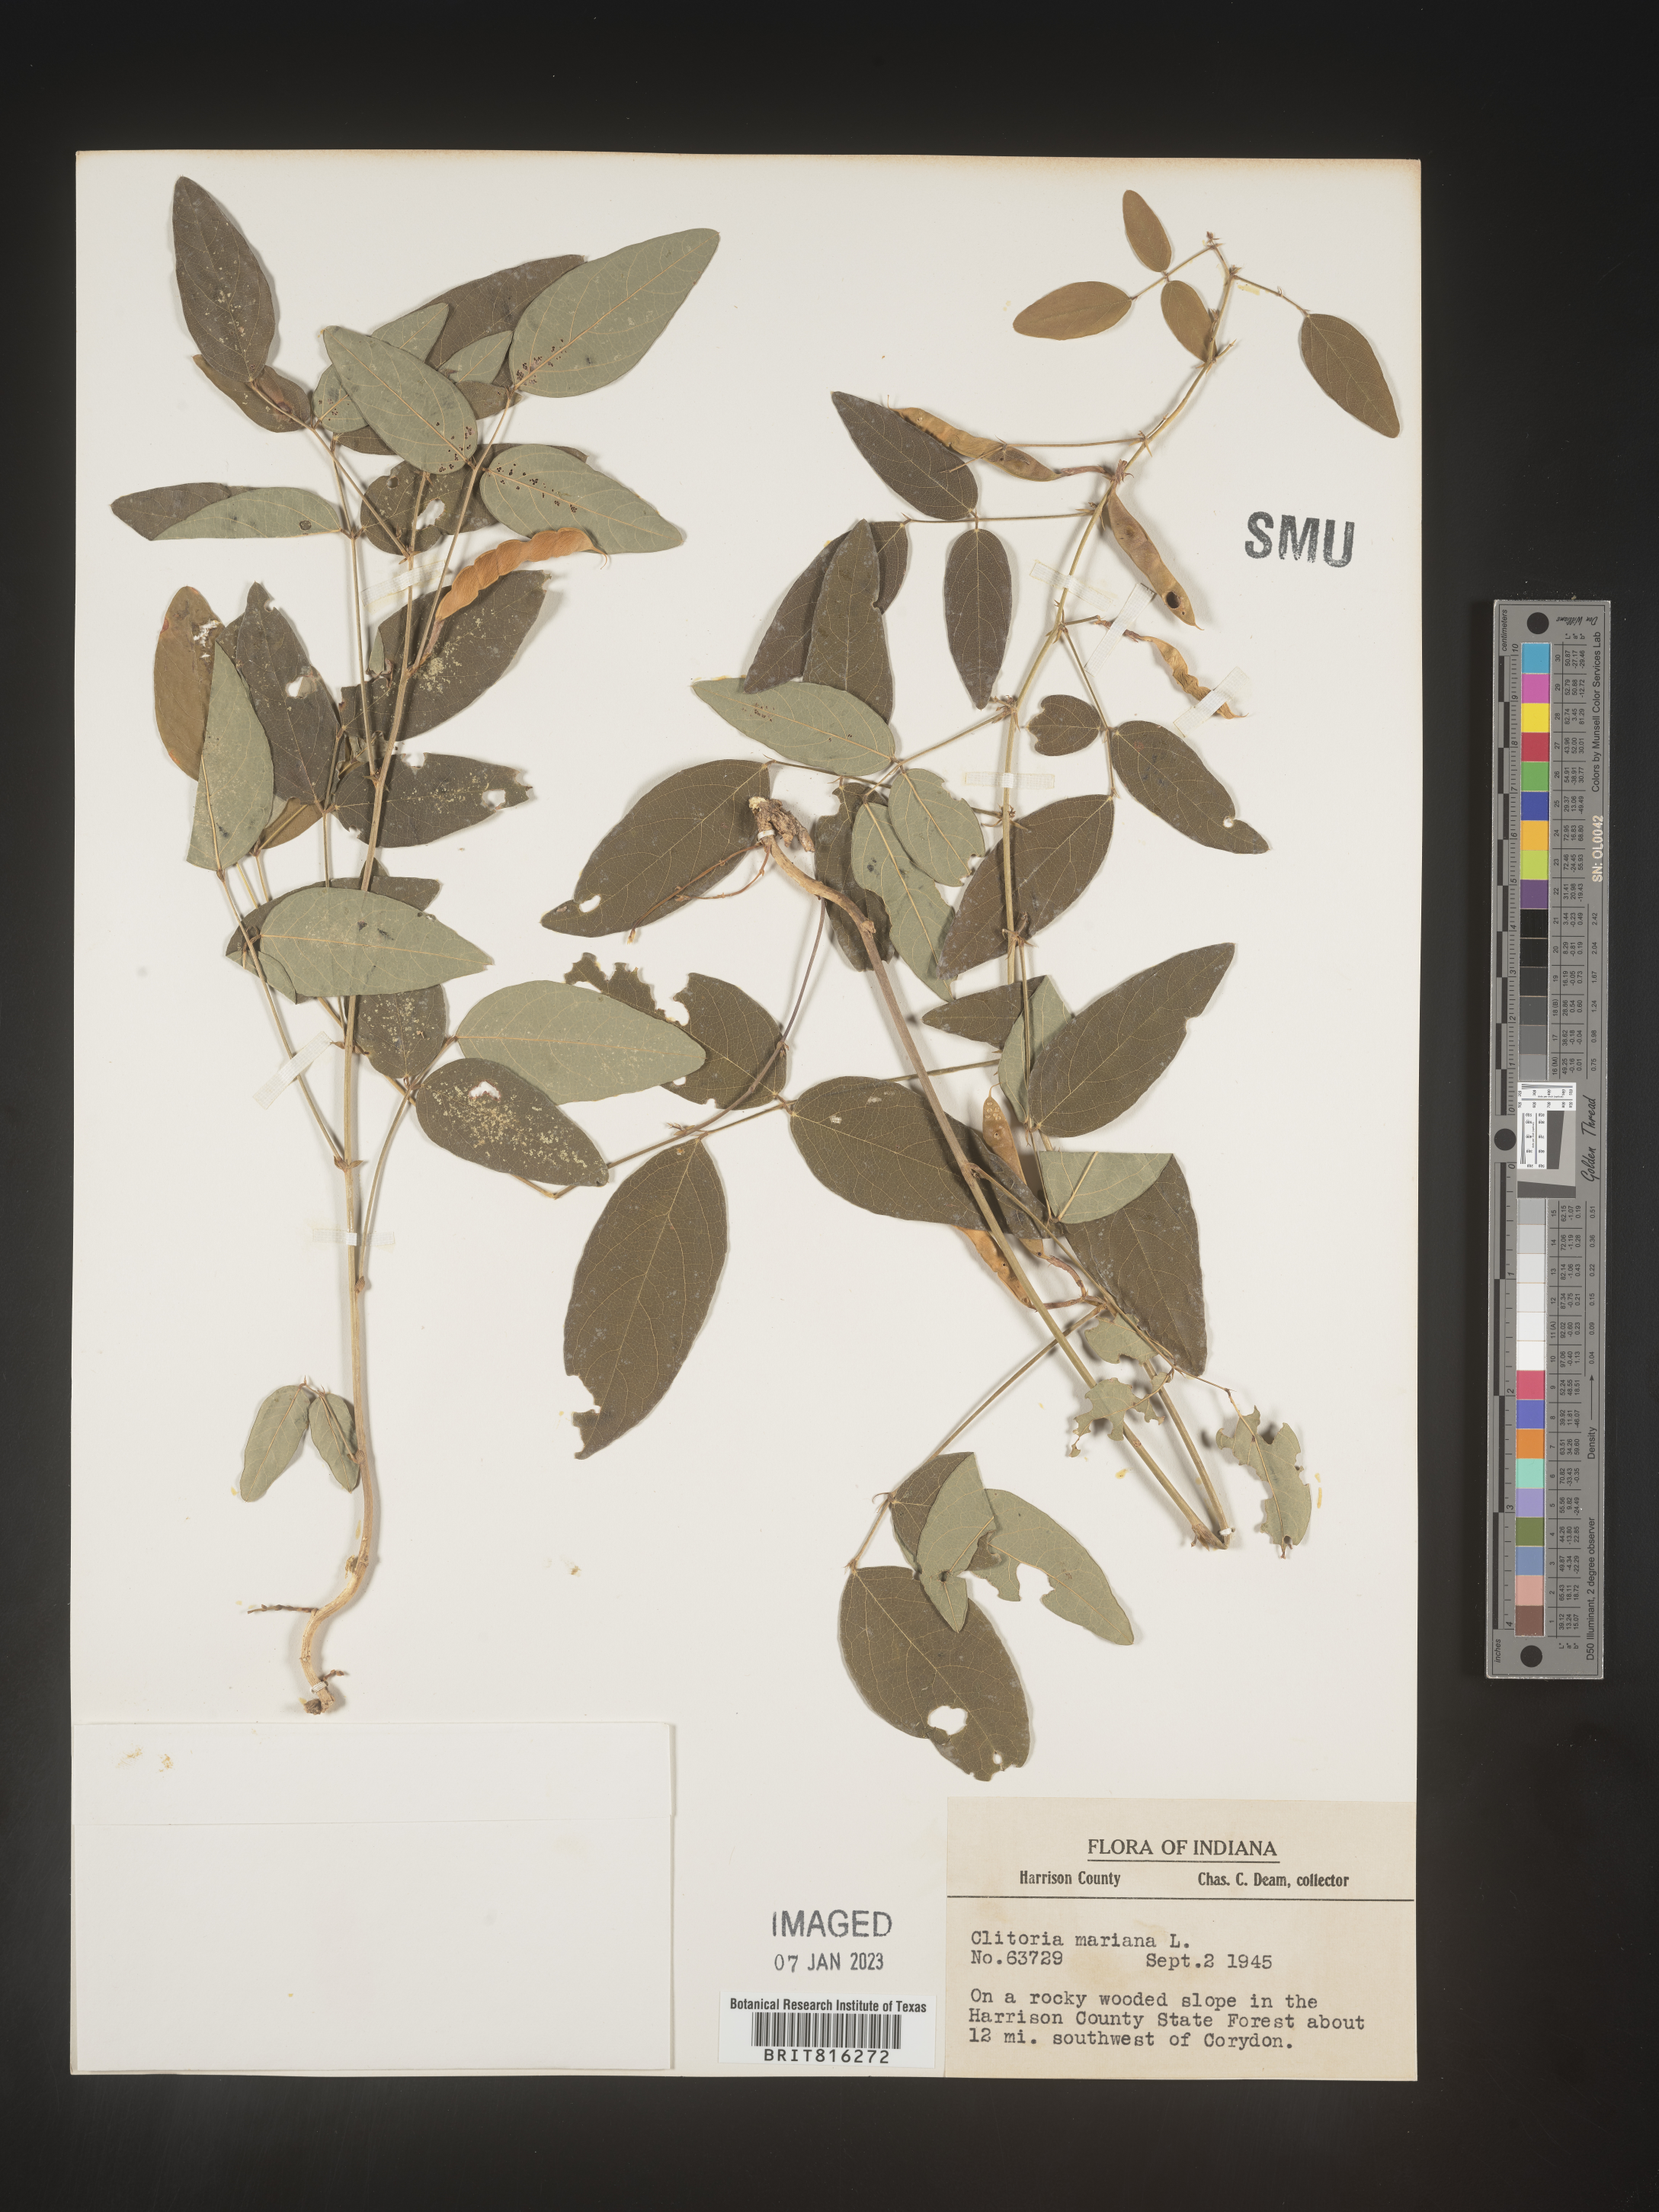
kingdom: Plantae
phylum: Tracheophyta
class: Magnoliopsida
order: Fabales
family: Fabaceae
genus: Clitoria
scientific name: Clitoria mariana
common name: Butterfly-pea
